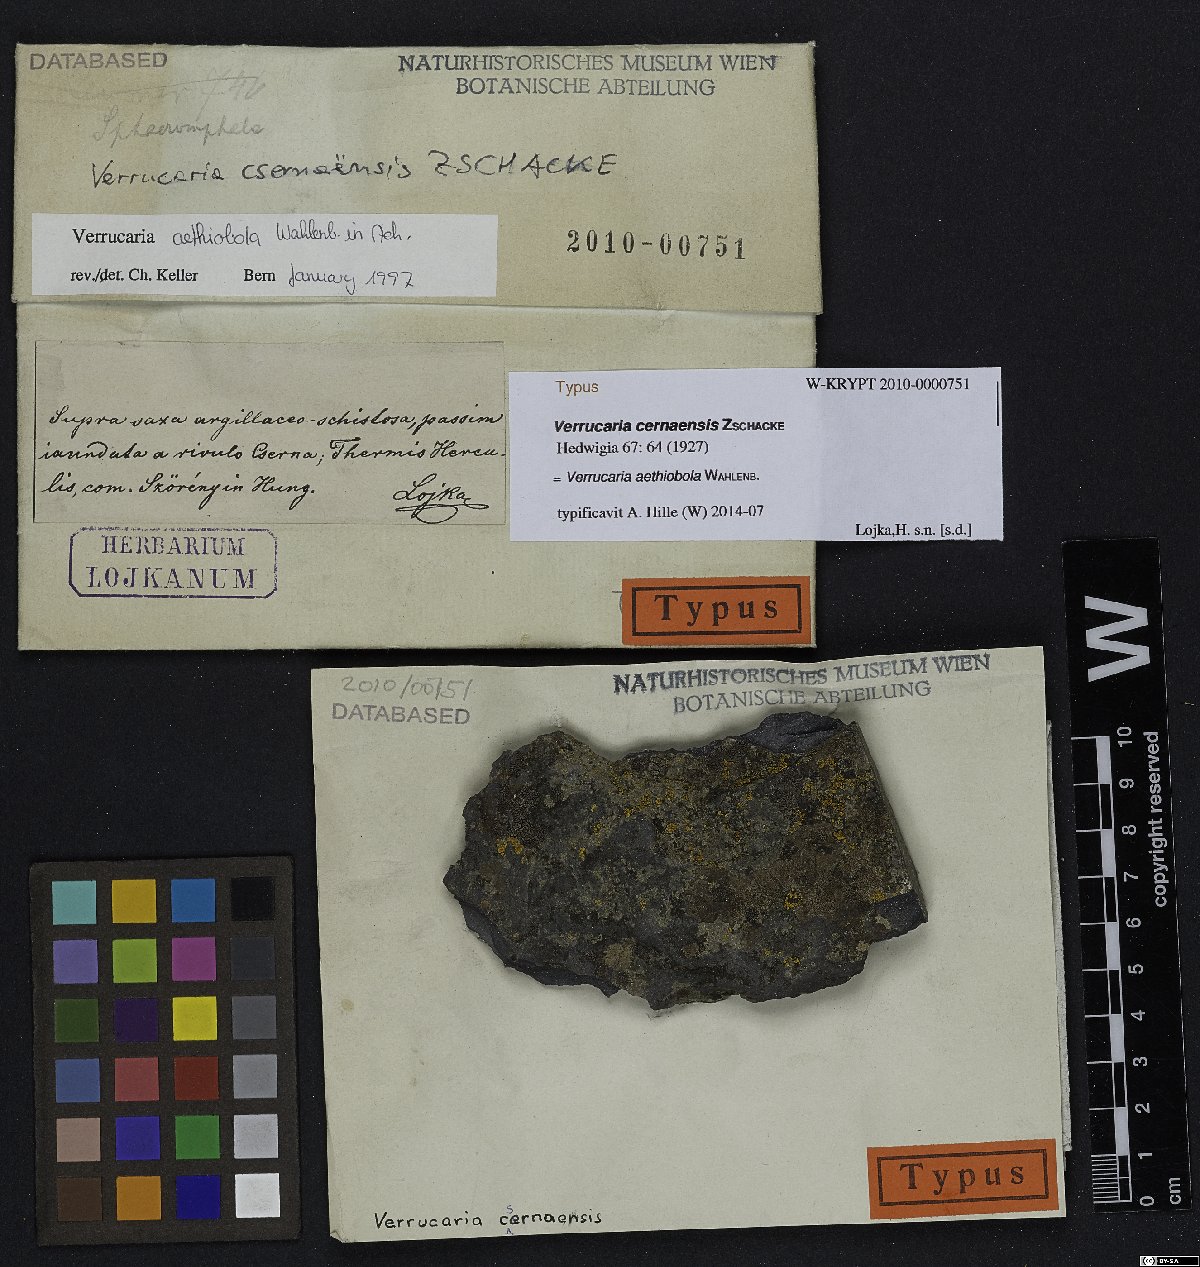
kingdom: Fungi
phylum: Ascomycota
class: Eurotiomycetes
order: Verrucariales
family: Verrucariaceae
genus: Verrucaria
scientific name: Verrucaria cernaensis
